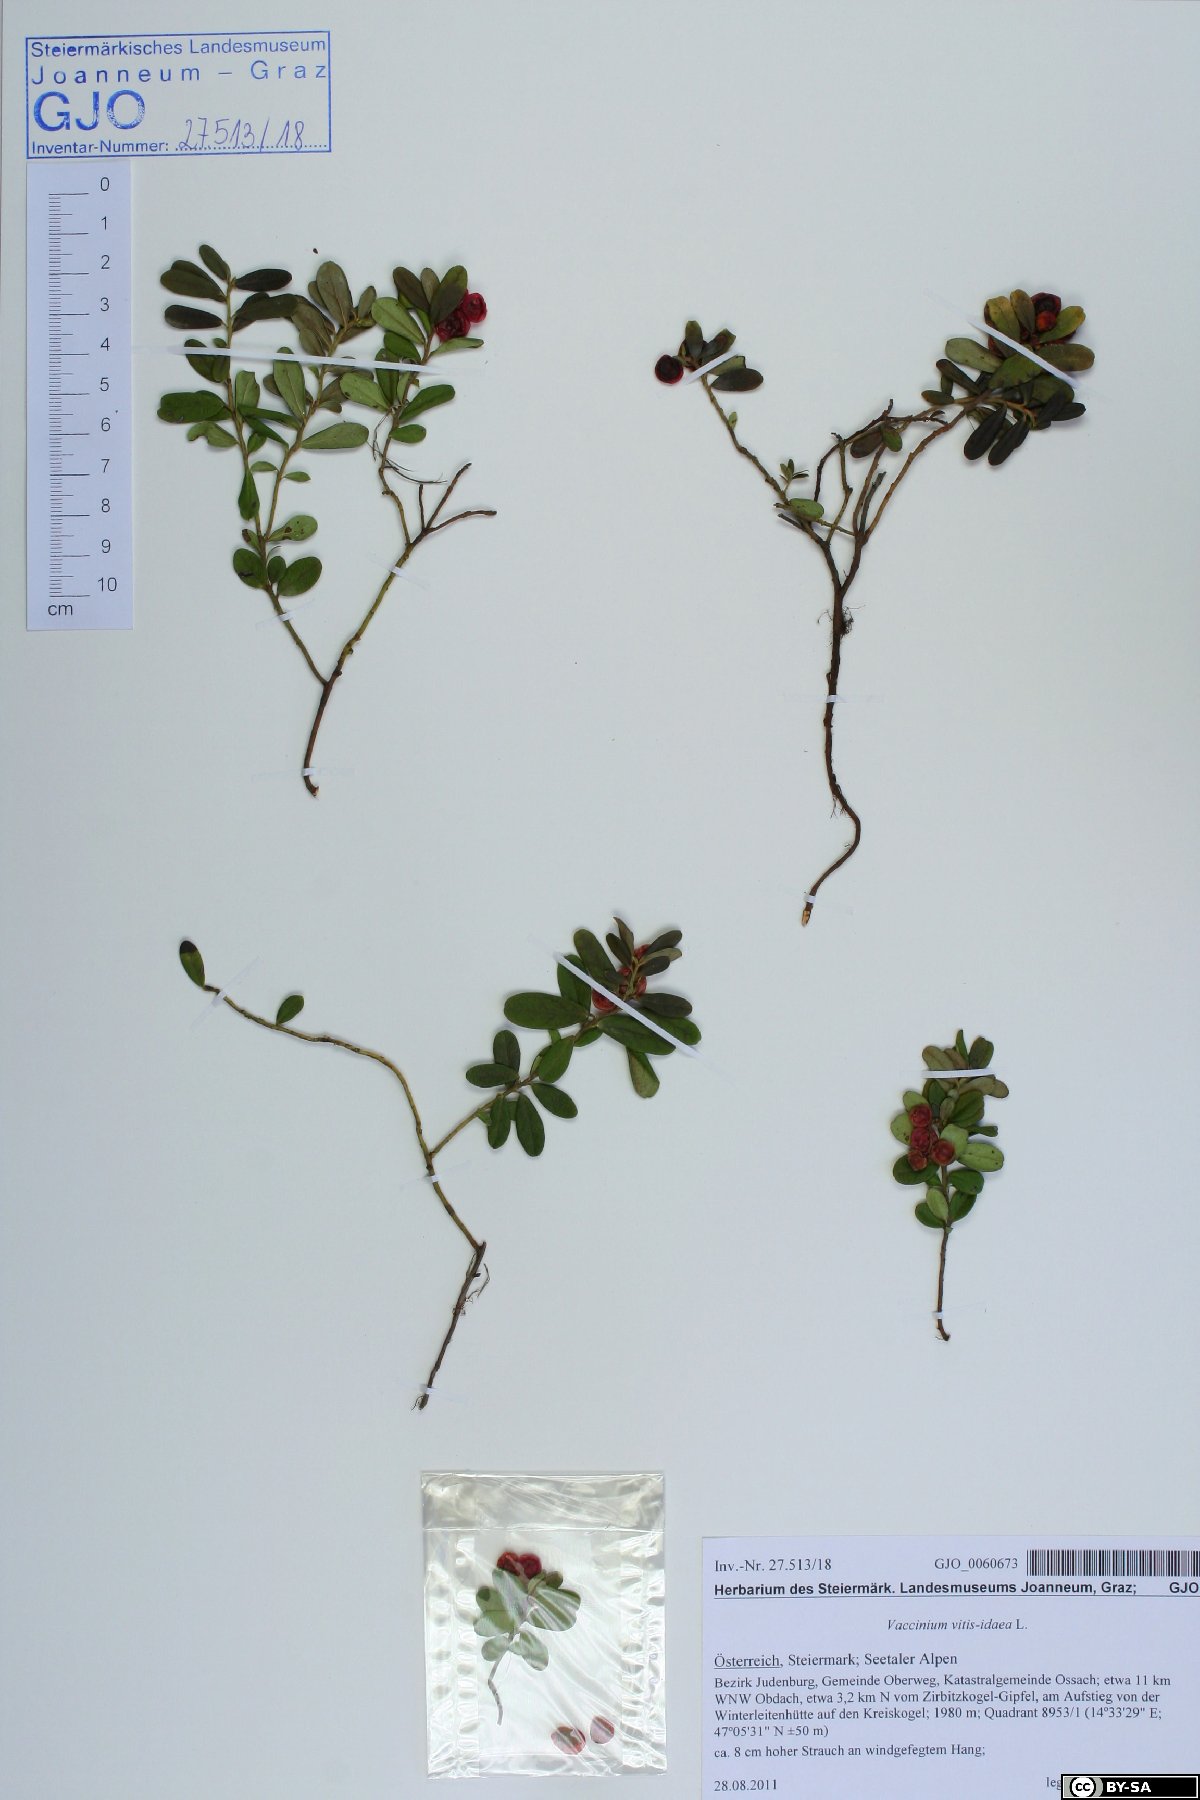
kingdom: Plantae
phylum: Tracheophyta
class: Magnoliopsida
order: Ericales
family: Ericaceae
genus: Vaccinium
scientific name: Vaccinium vitis-idaea
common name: Cowberry
